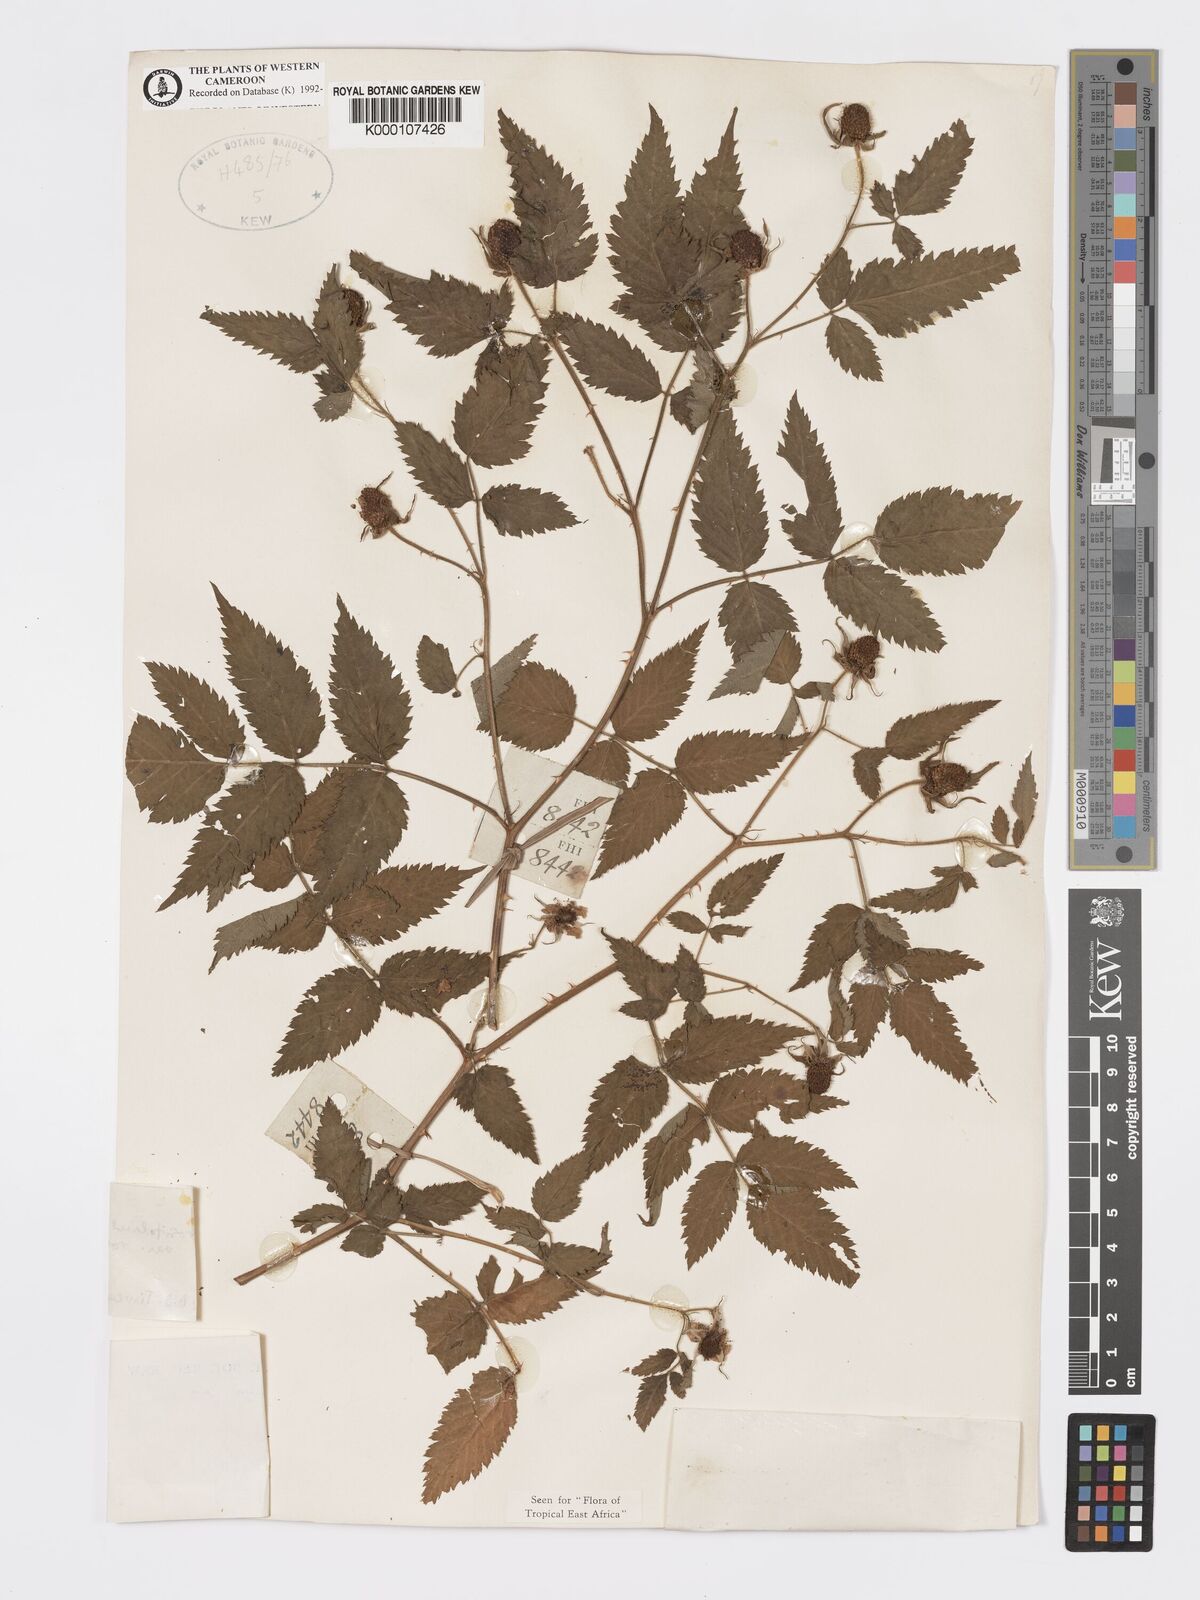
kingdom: Plantae
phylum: Tracheophyta
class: Magnoliopsida
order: Rosales
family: Rosaceae
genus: Rubus
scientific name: Rubus rosifolius
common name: Roseleaf raspberry
